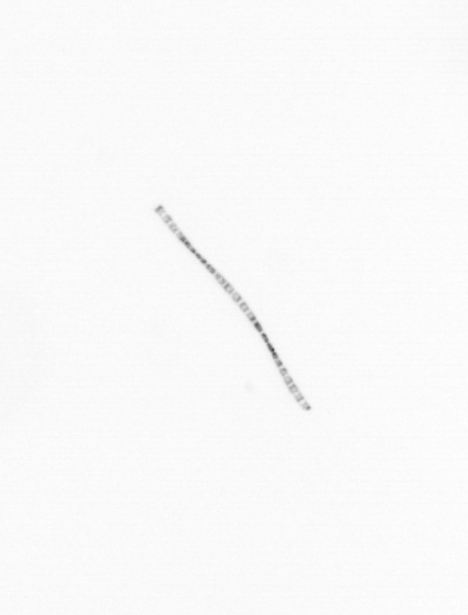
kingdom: Chromista
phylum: Ochrophyta
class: Bacillariophyceae
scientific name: Bacillariophyceae
